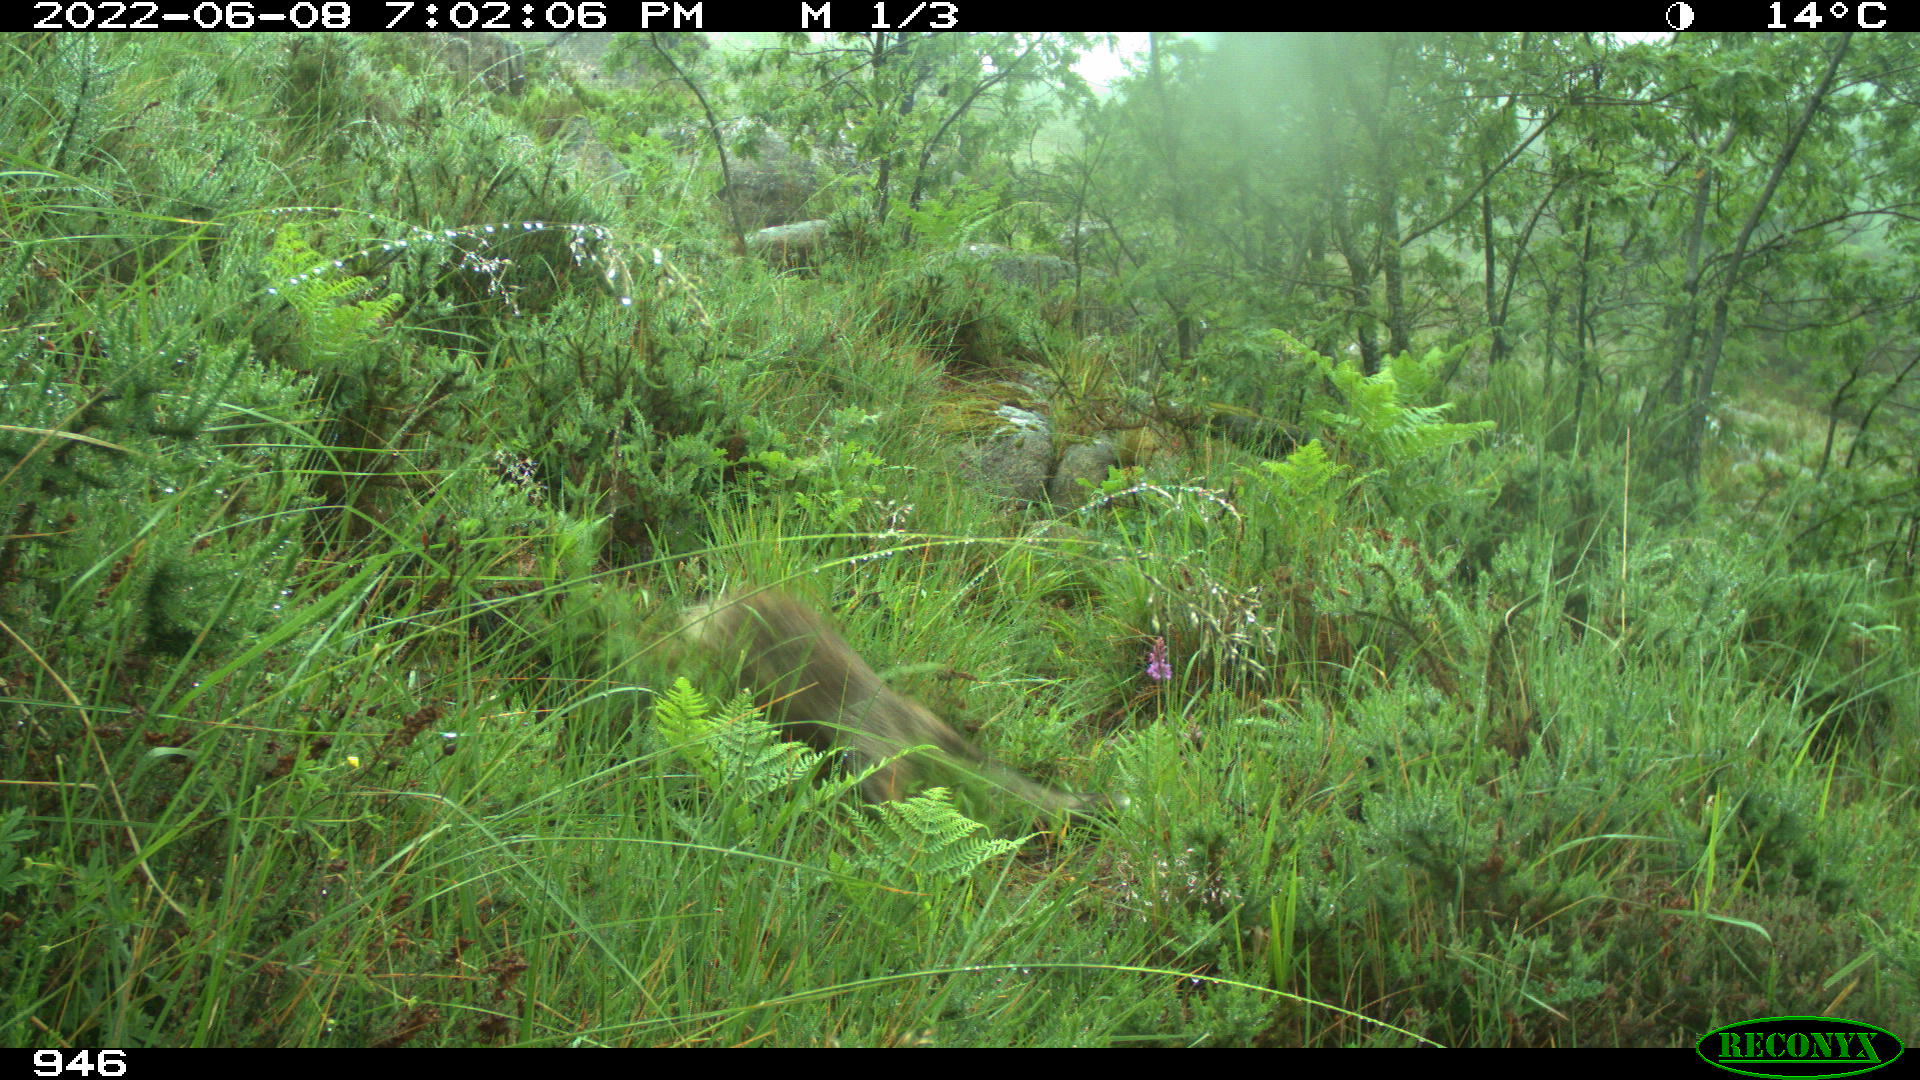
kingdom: Animalia
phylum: Chordata
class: Mammalia
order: Carnivora
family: Canidae
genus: Vulpes
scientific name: Vulpes vulpes
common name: Red fox
